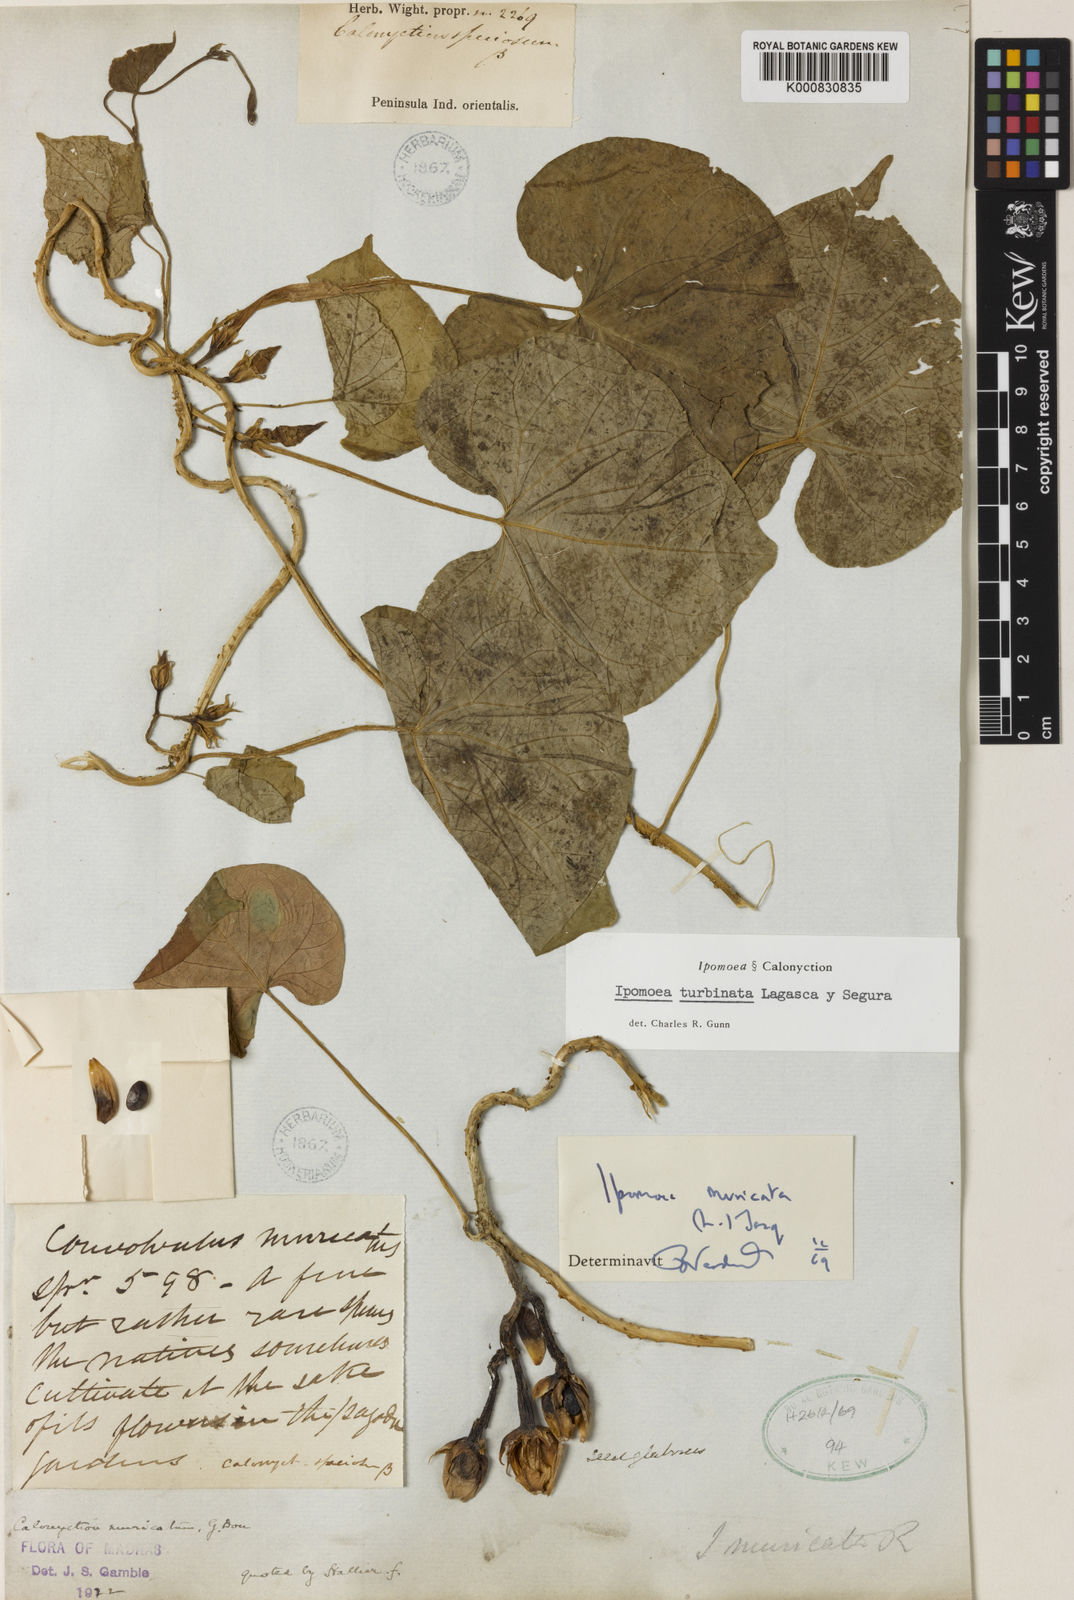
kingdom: Plantae
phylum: Tracheophyta
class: Magnoliopsida
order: Solanales
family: Convolvulaceae
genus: Ipomoea
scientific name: Ipomoea muricata
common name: Lilac-bell
